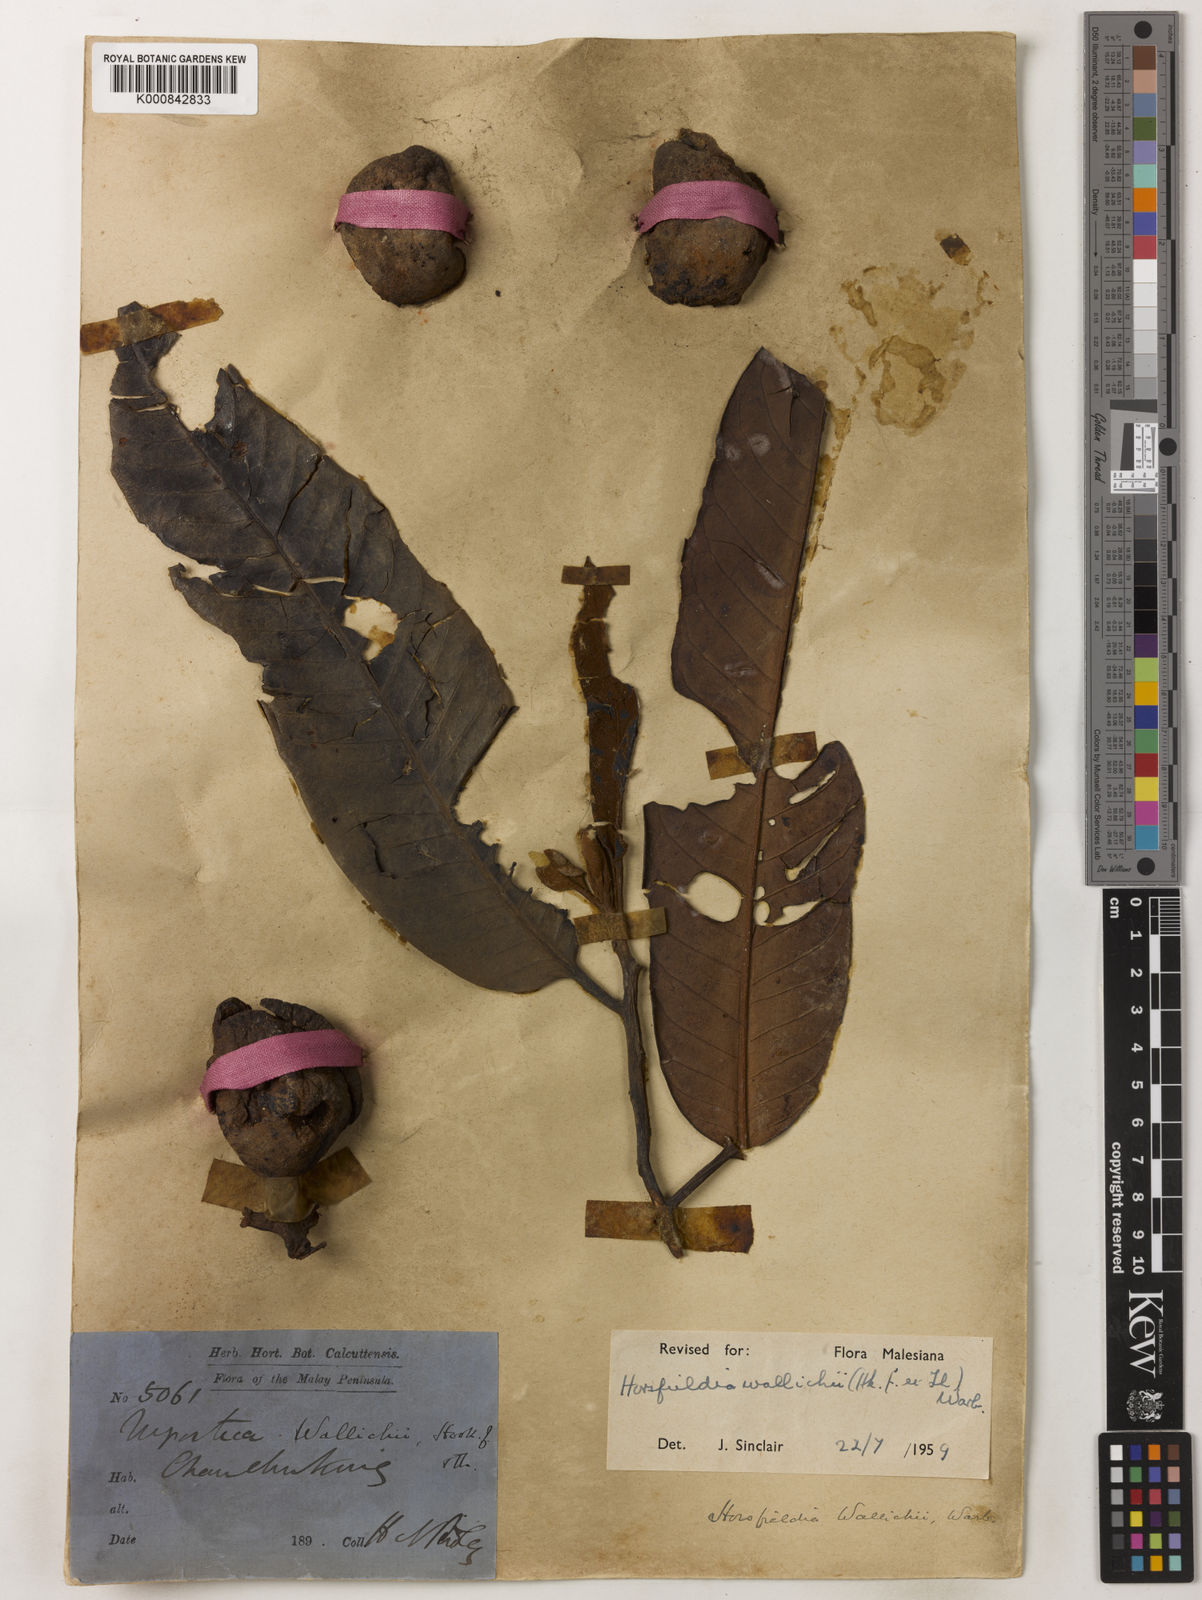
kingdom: Plantae
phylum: Tracheophyta
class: Magnoliopsida
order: Magnoliales
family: Myristicaceae
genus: Horsfieldia
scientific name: Horsfieldia wallichii
